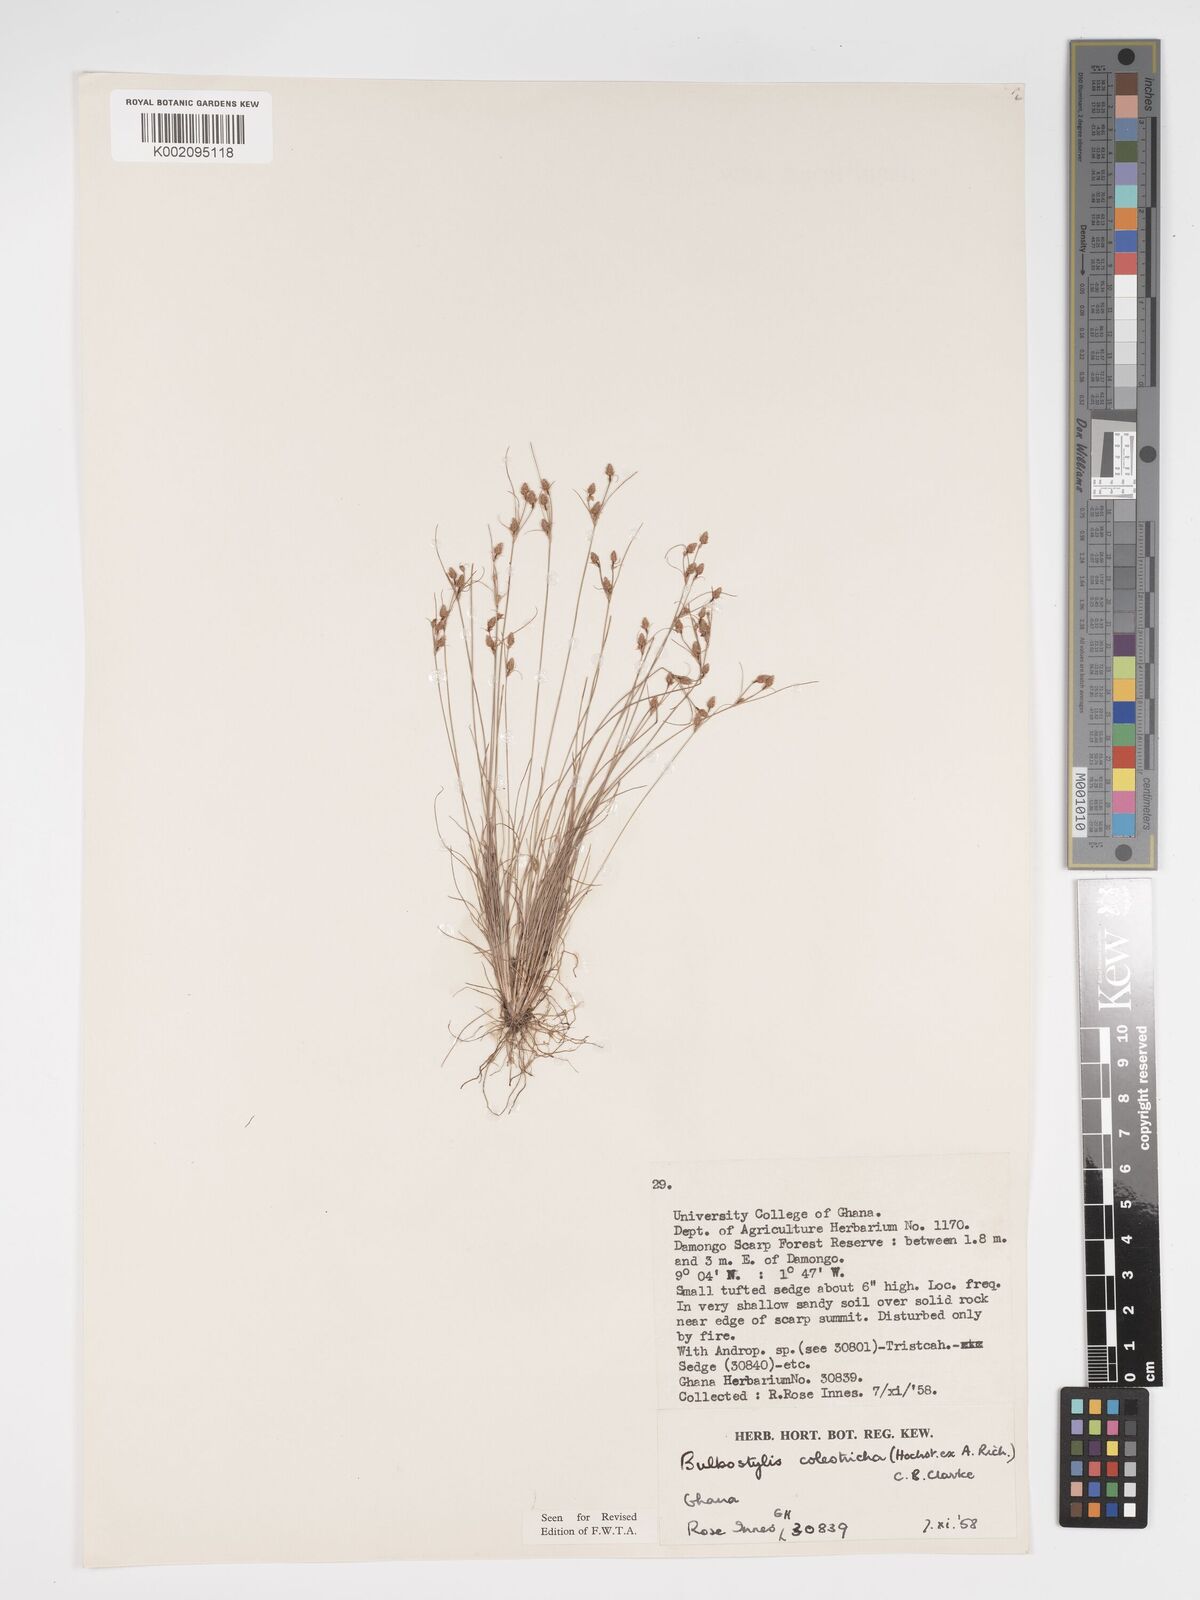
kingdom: Plantae
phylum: Tracheophyta
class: Liliopsida
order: Poales
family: Cyperaceae
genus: Bulbostylis
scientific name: Bulbostylis coleotricha
